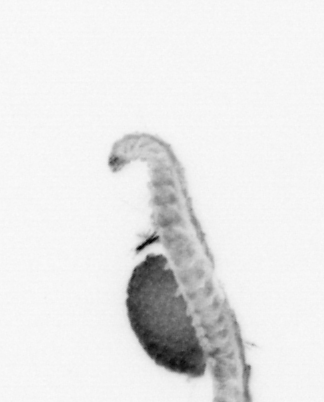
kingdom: Animalia
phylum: Annelida
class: Polychaeta
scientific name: Polychaeta
